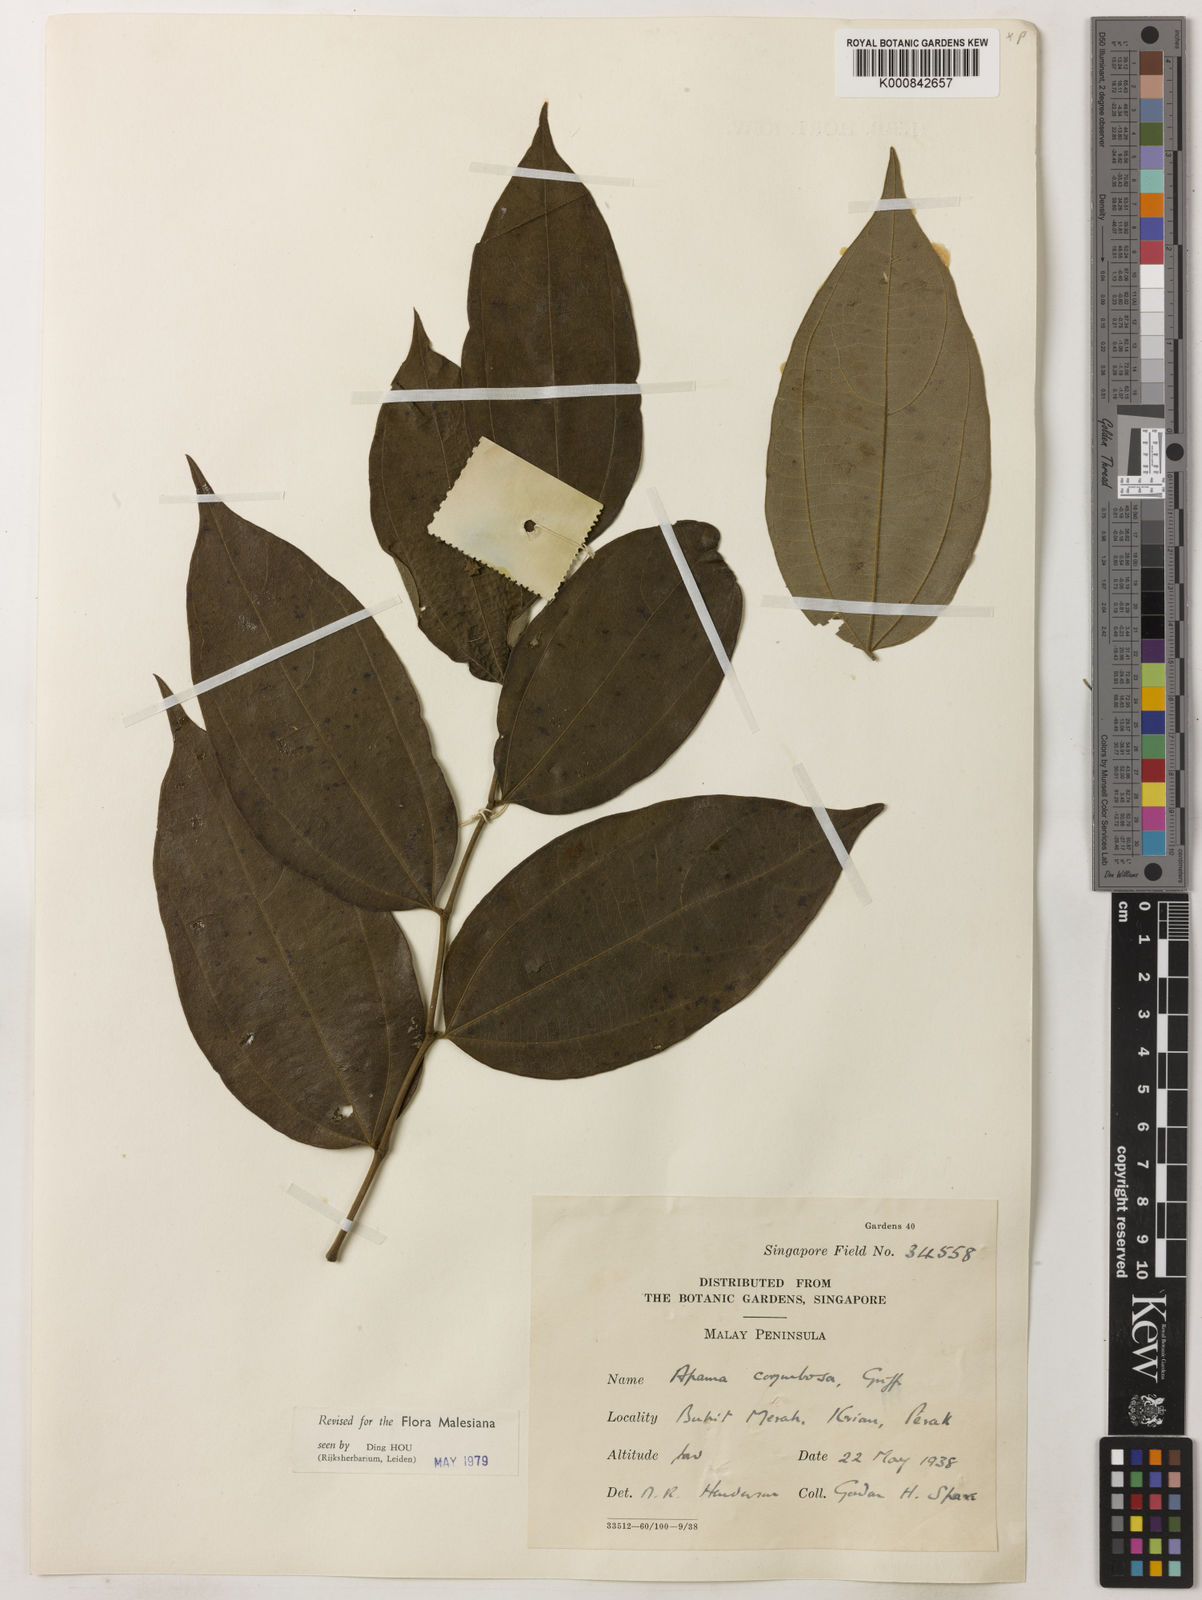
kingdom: Plantae
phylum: Tracheophyta
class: Magnoliopsida
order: Piperales
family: Aristolochiaceae
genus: Thottea
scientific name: Thottea piperiformis
